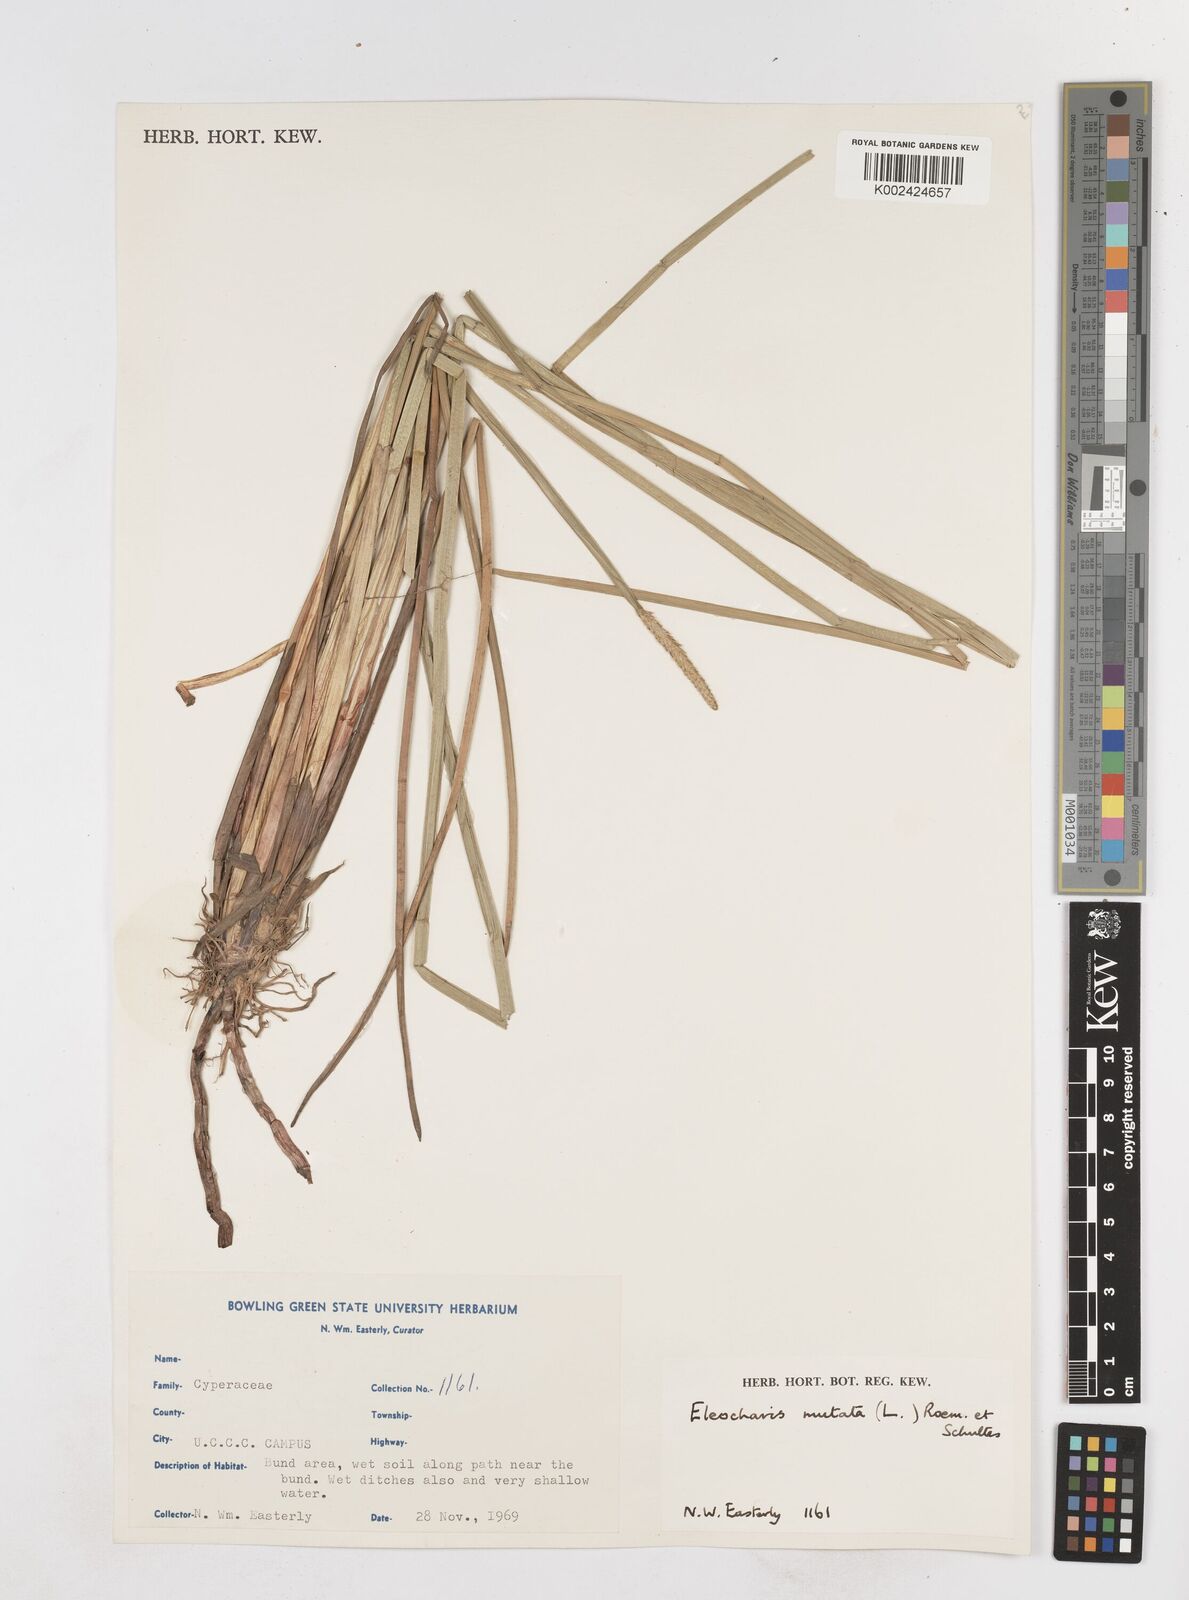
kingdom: Plantae
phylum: Tracheophyta
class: Liliopsida
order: Poales
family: Cyperaceae
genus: Eleocharis
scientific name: Eleocharis quadrangulata
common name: Square-stem spike-rush
